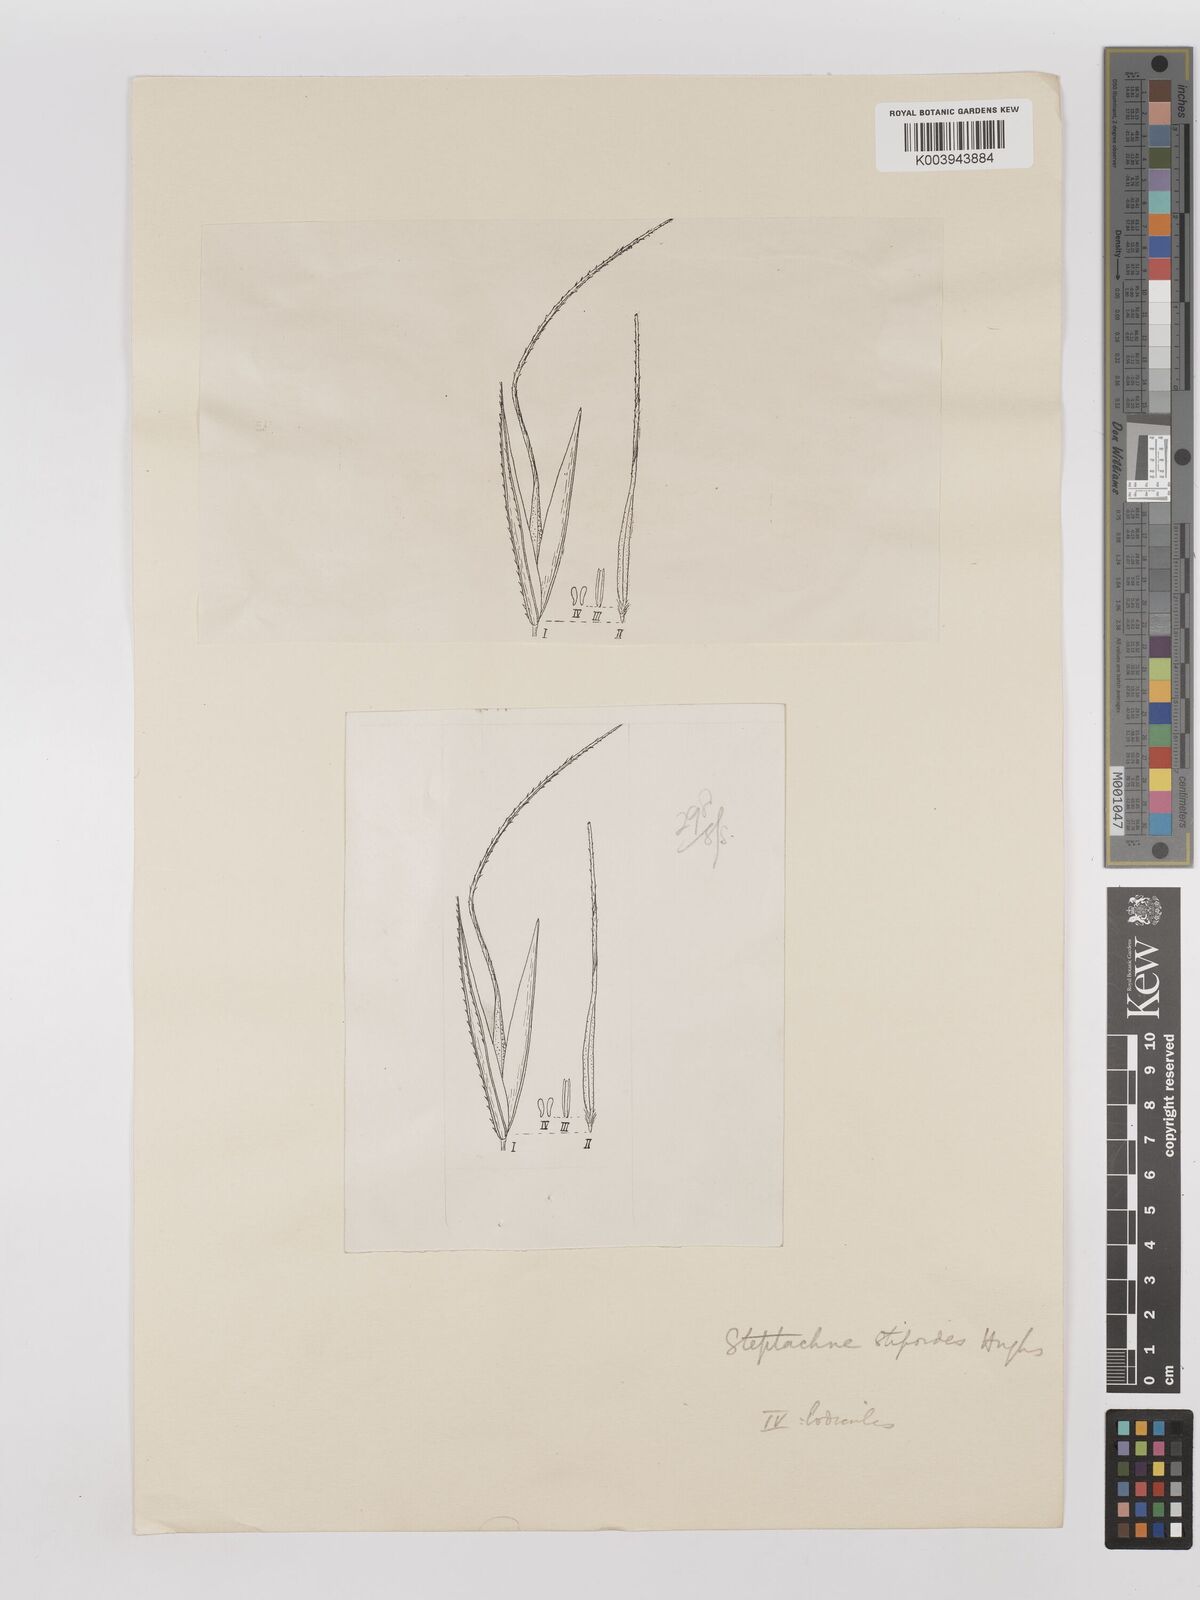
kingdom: Plantae
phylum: Tracheophyta
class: Liliopsida
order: Poales
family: Poaceae
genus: Aristida
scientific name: Aristida utilis
